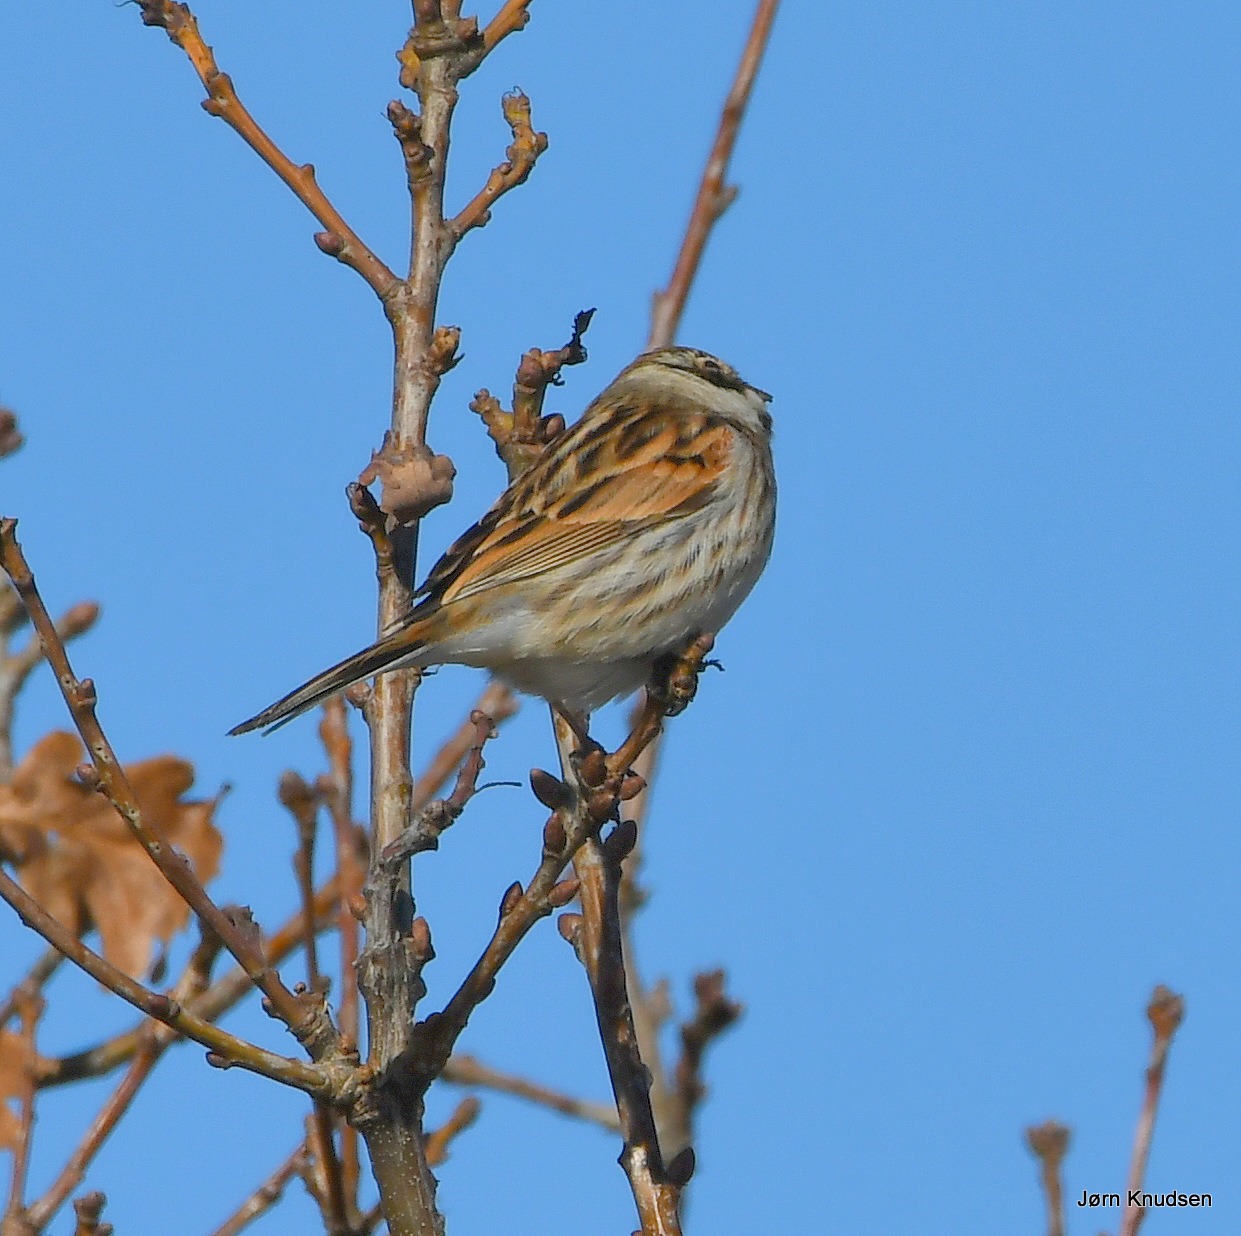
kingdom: Animalia
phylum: Chordata
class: Aves
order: Passeriformes
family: Emberizidae
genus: Emberiza
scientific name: Emberiza schoeniclus
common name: Rørspurv
